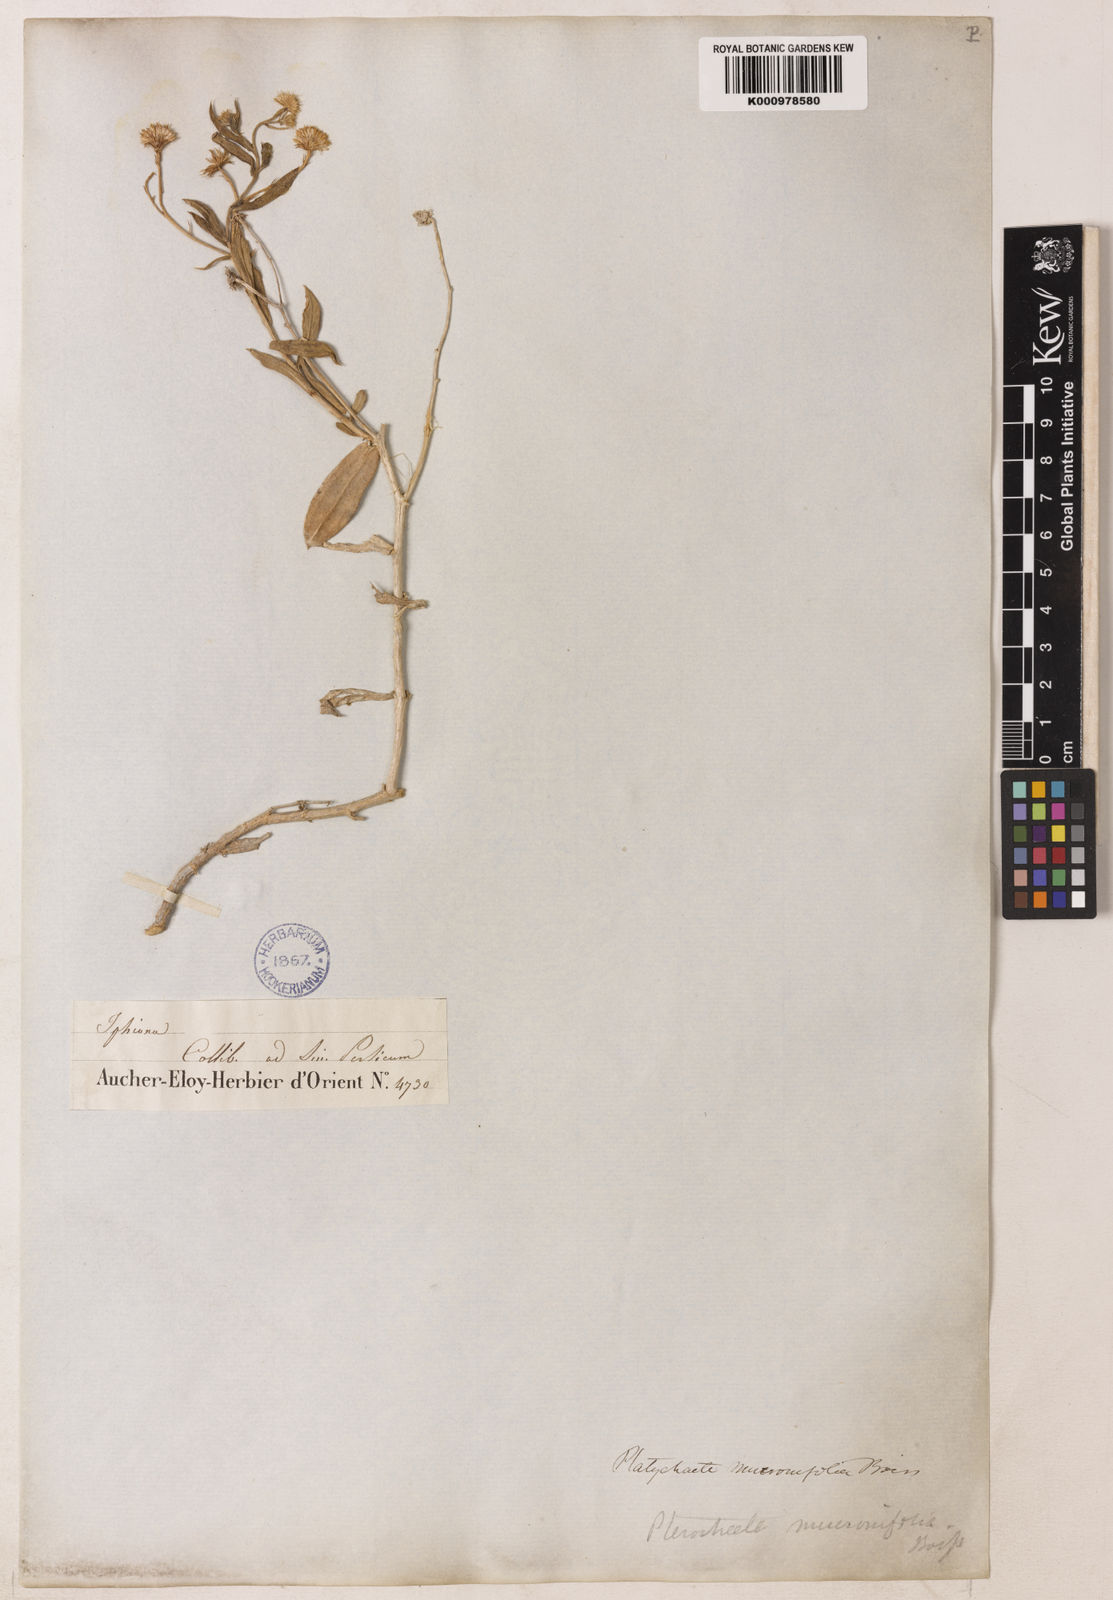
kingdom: Plantae
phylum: Tracheophyta
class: Magnoliopsida
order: Asterales
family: Asteraceae
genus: Pulicaria
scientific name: Pulicaria mucronifolia
